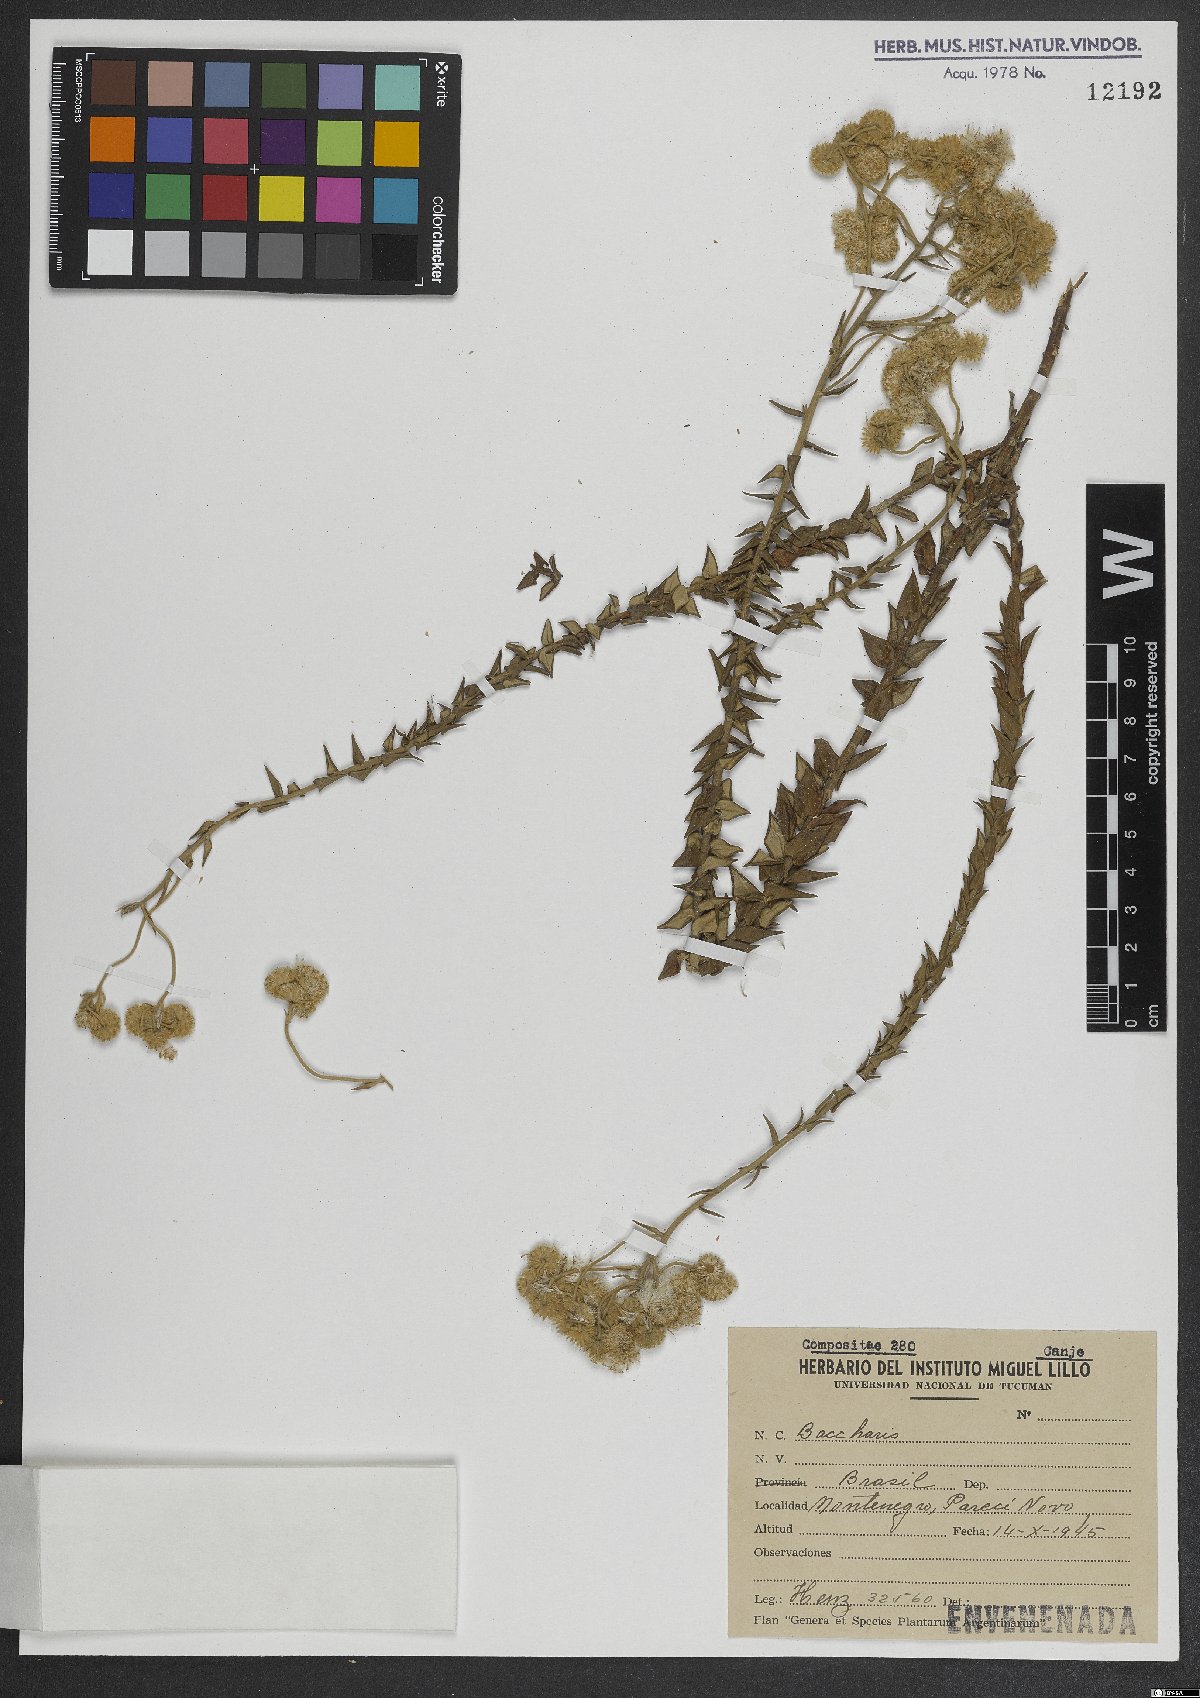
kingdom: Plantae
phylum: Tracheophyta
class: Magnoliopsida
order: Asterales
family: Asteraceae
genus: Baccharis
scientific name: Baccharis
